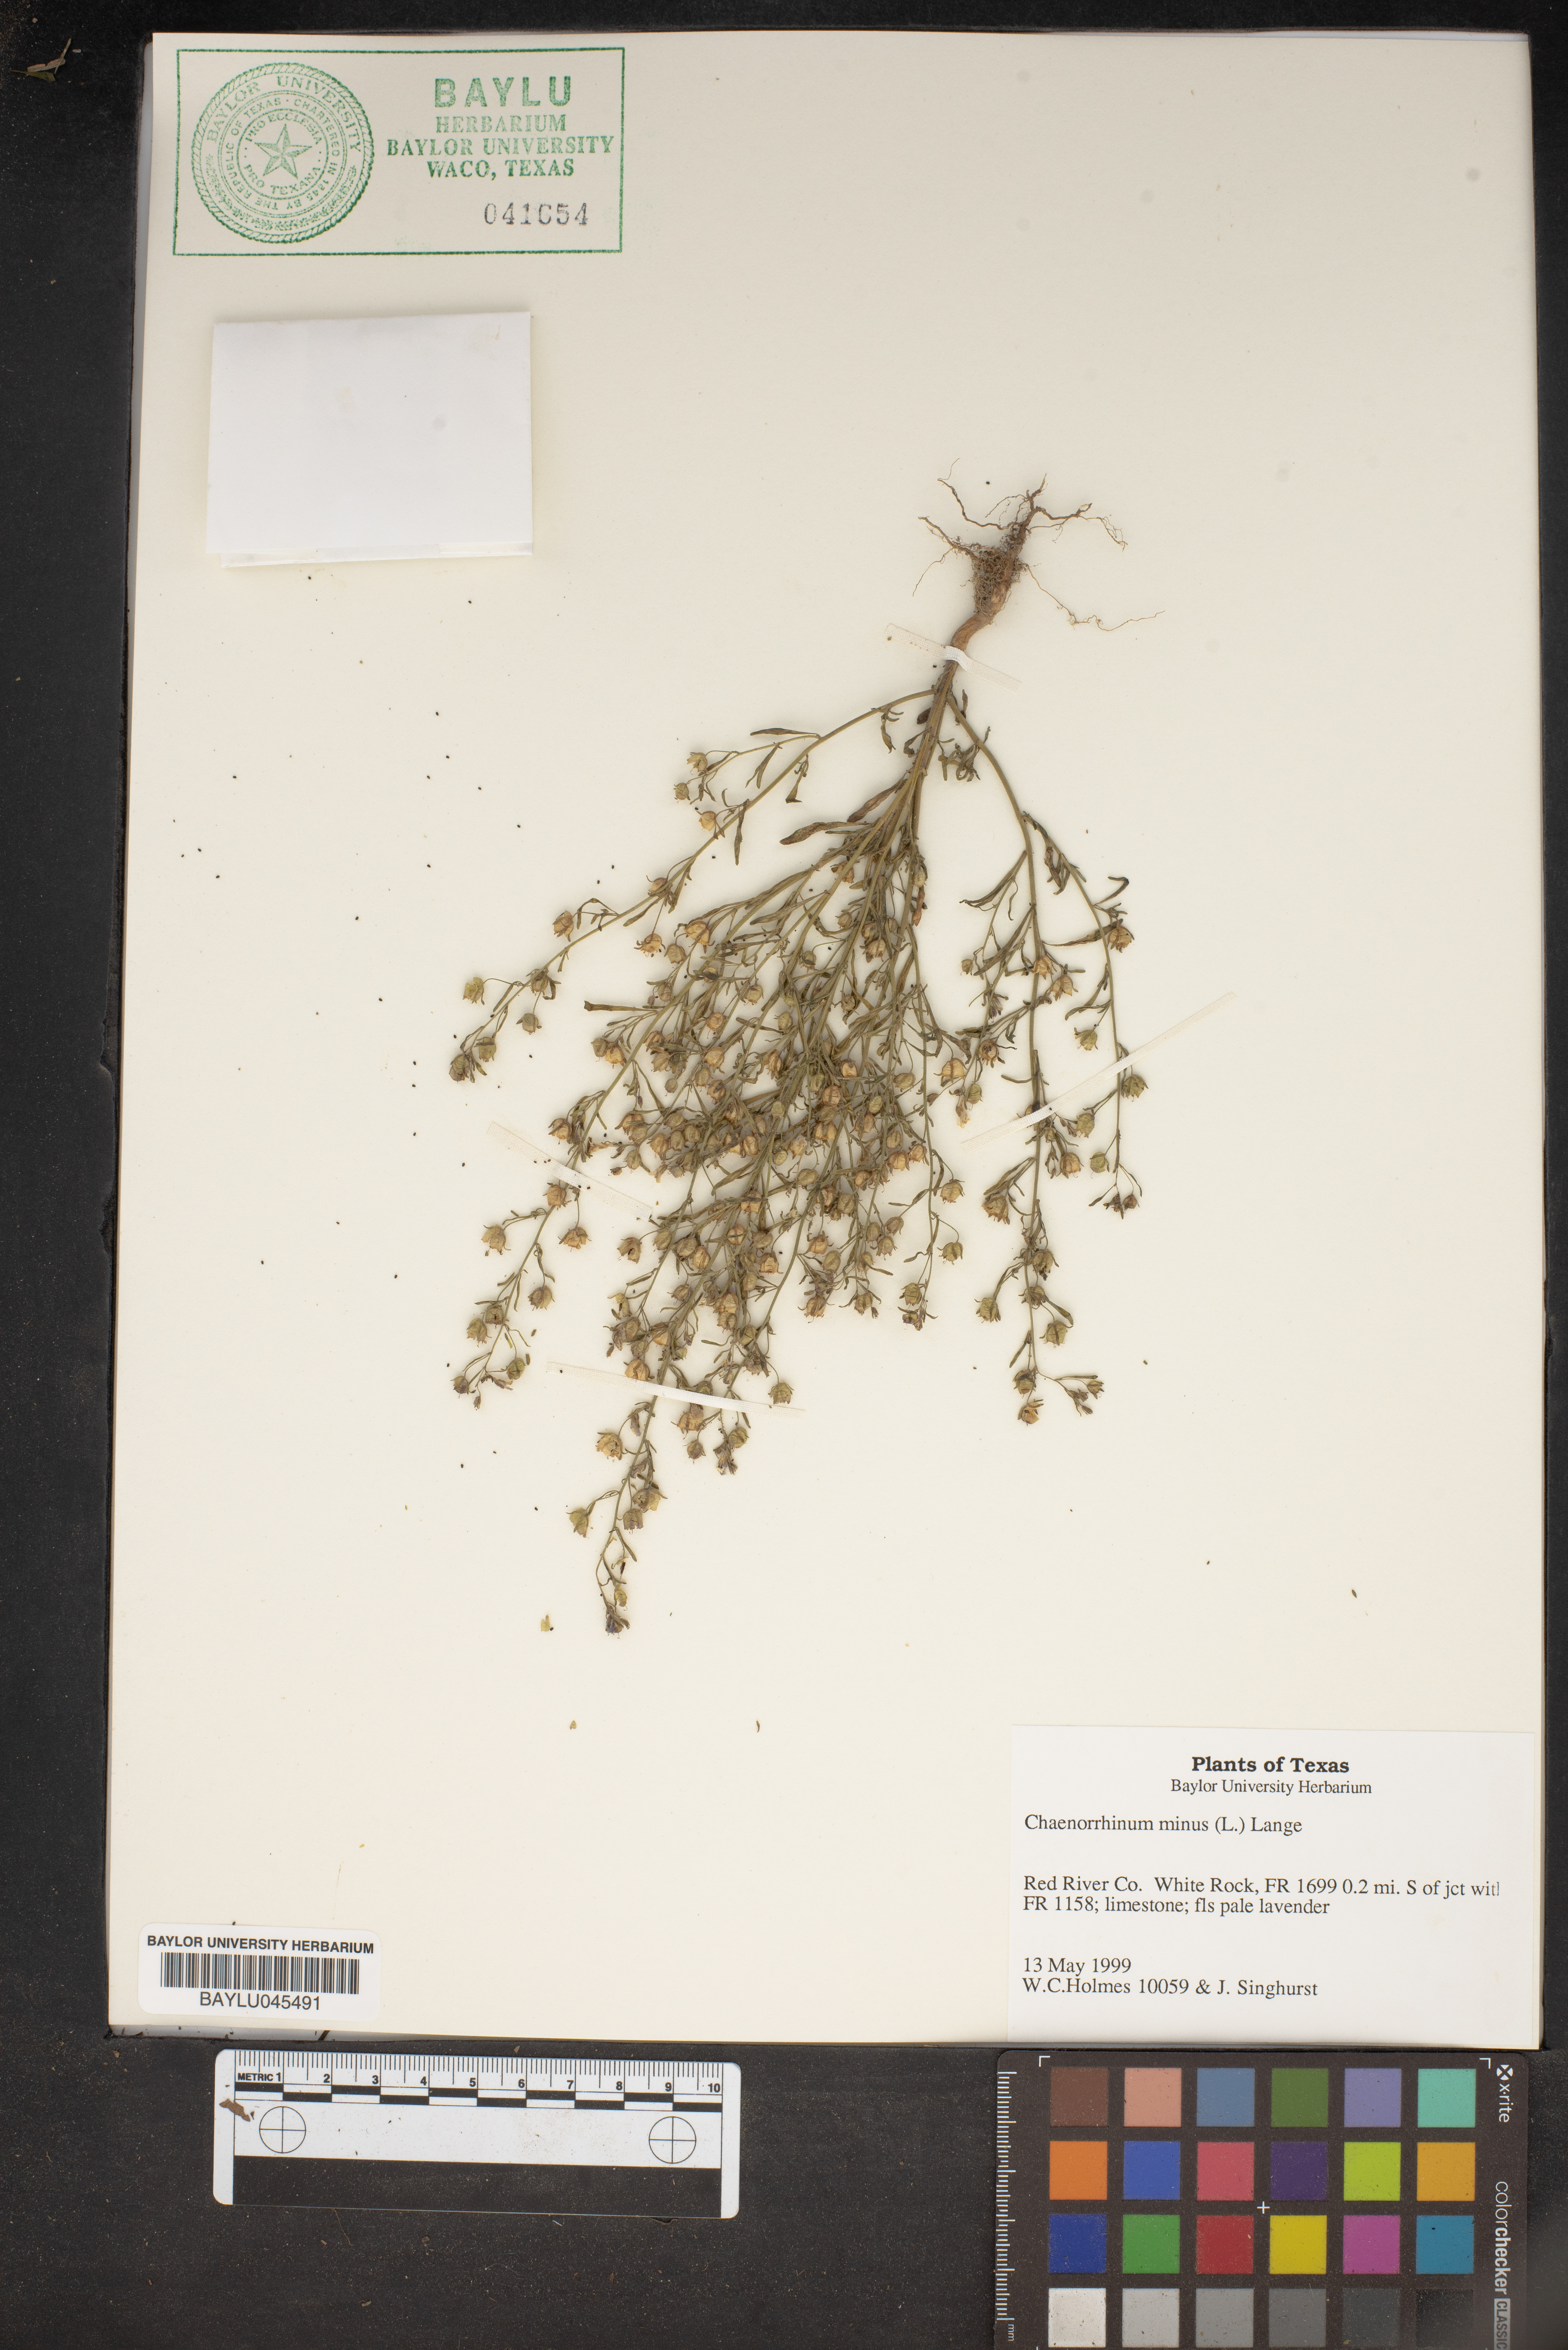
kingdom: Plantae
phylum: Tracheophyta
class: Magnoliopsida
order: Lamiales
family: Plantaginaceae
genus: Chaenorhinum
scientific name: Chaenorhinum minus
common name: Dwarf snapdragon
